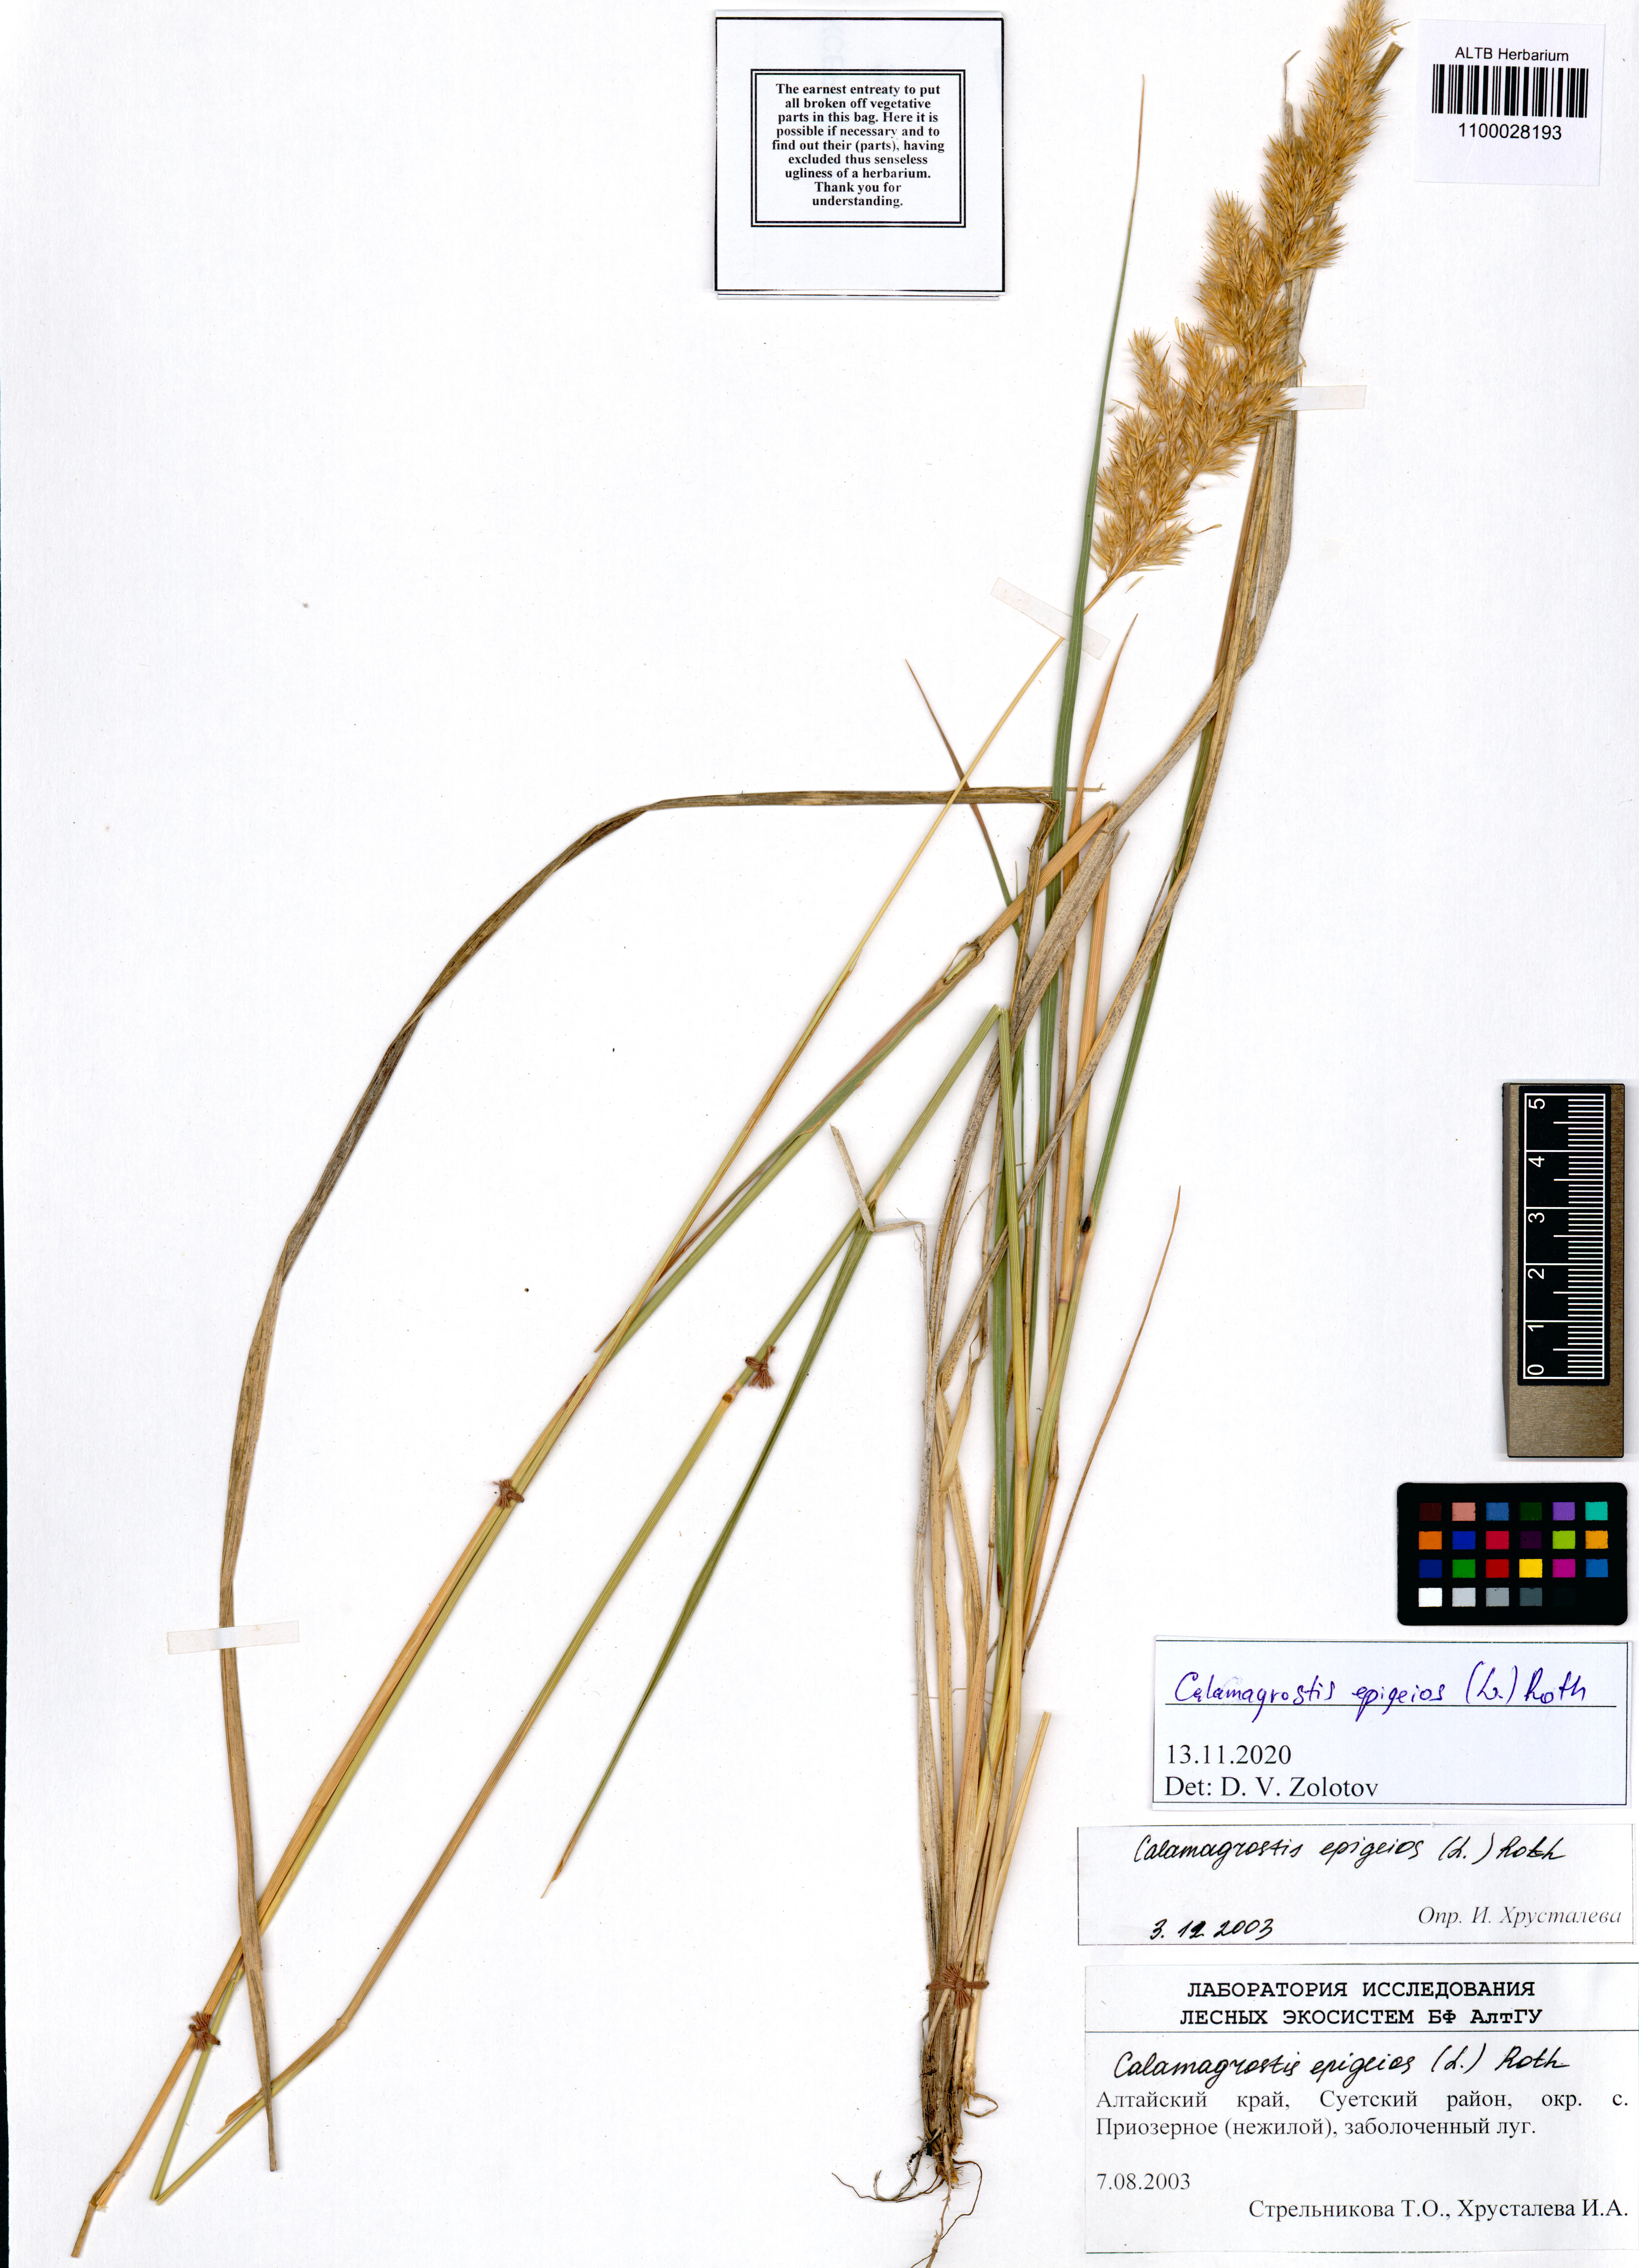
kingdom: Plantae
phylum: Tracheophyta
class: Liliopsida
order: Poales
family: Poaceae
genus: Calamagrostis
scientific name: Calamagrostis epigejos
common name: Wood small-reed
